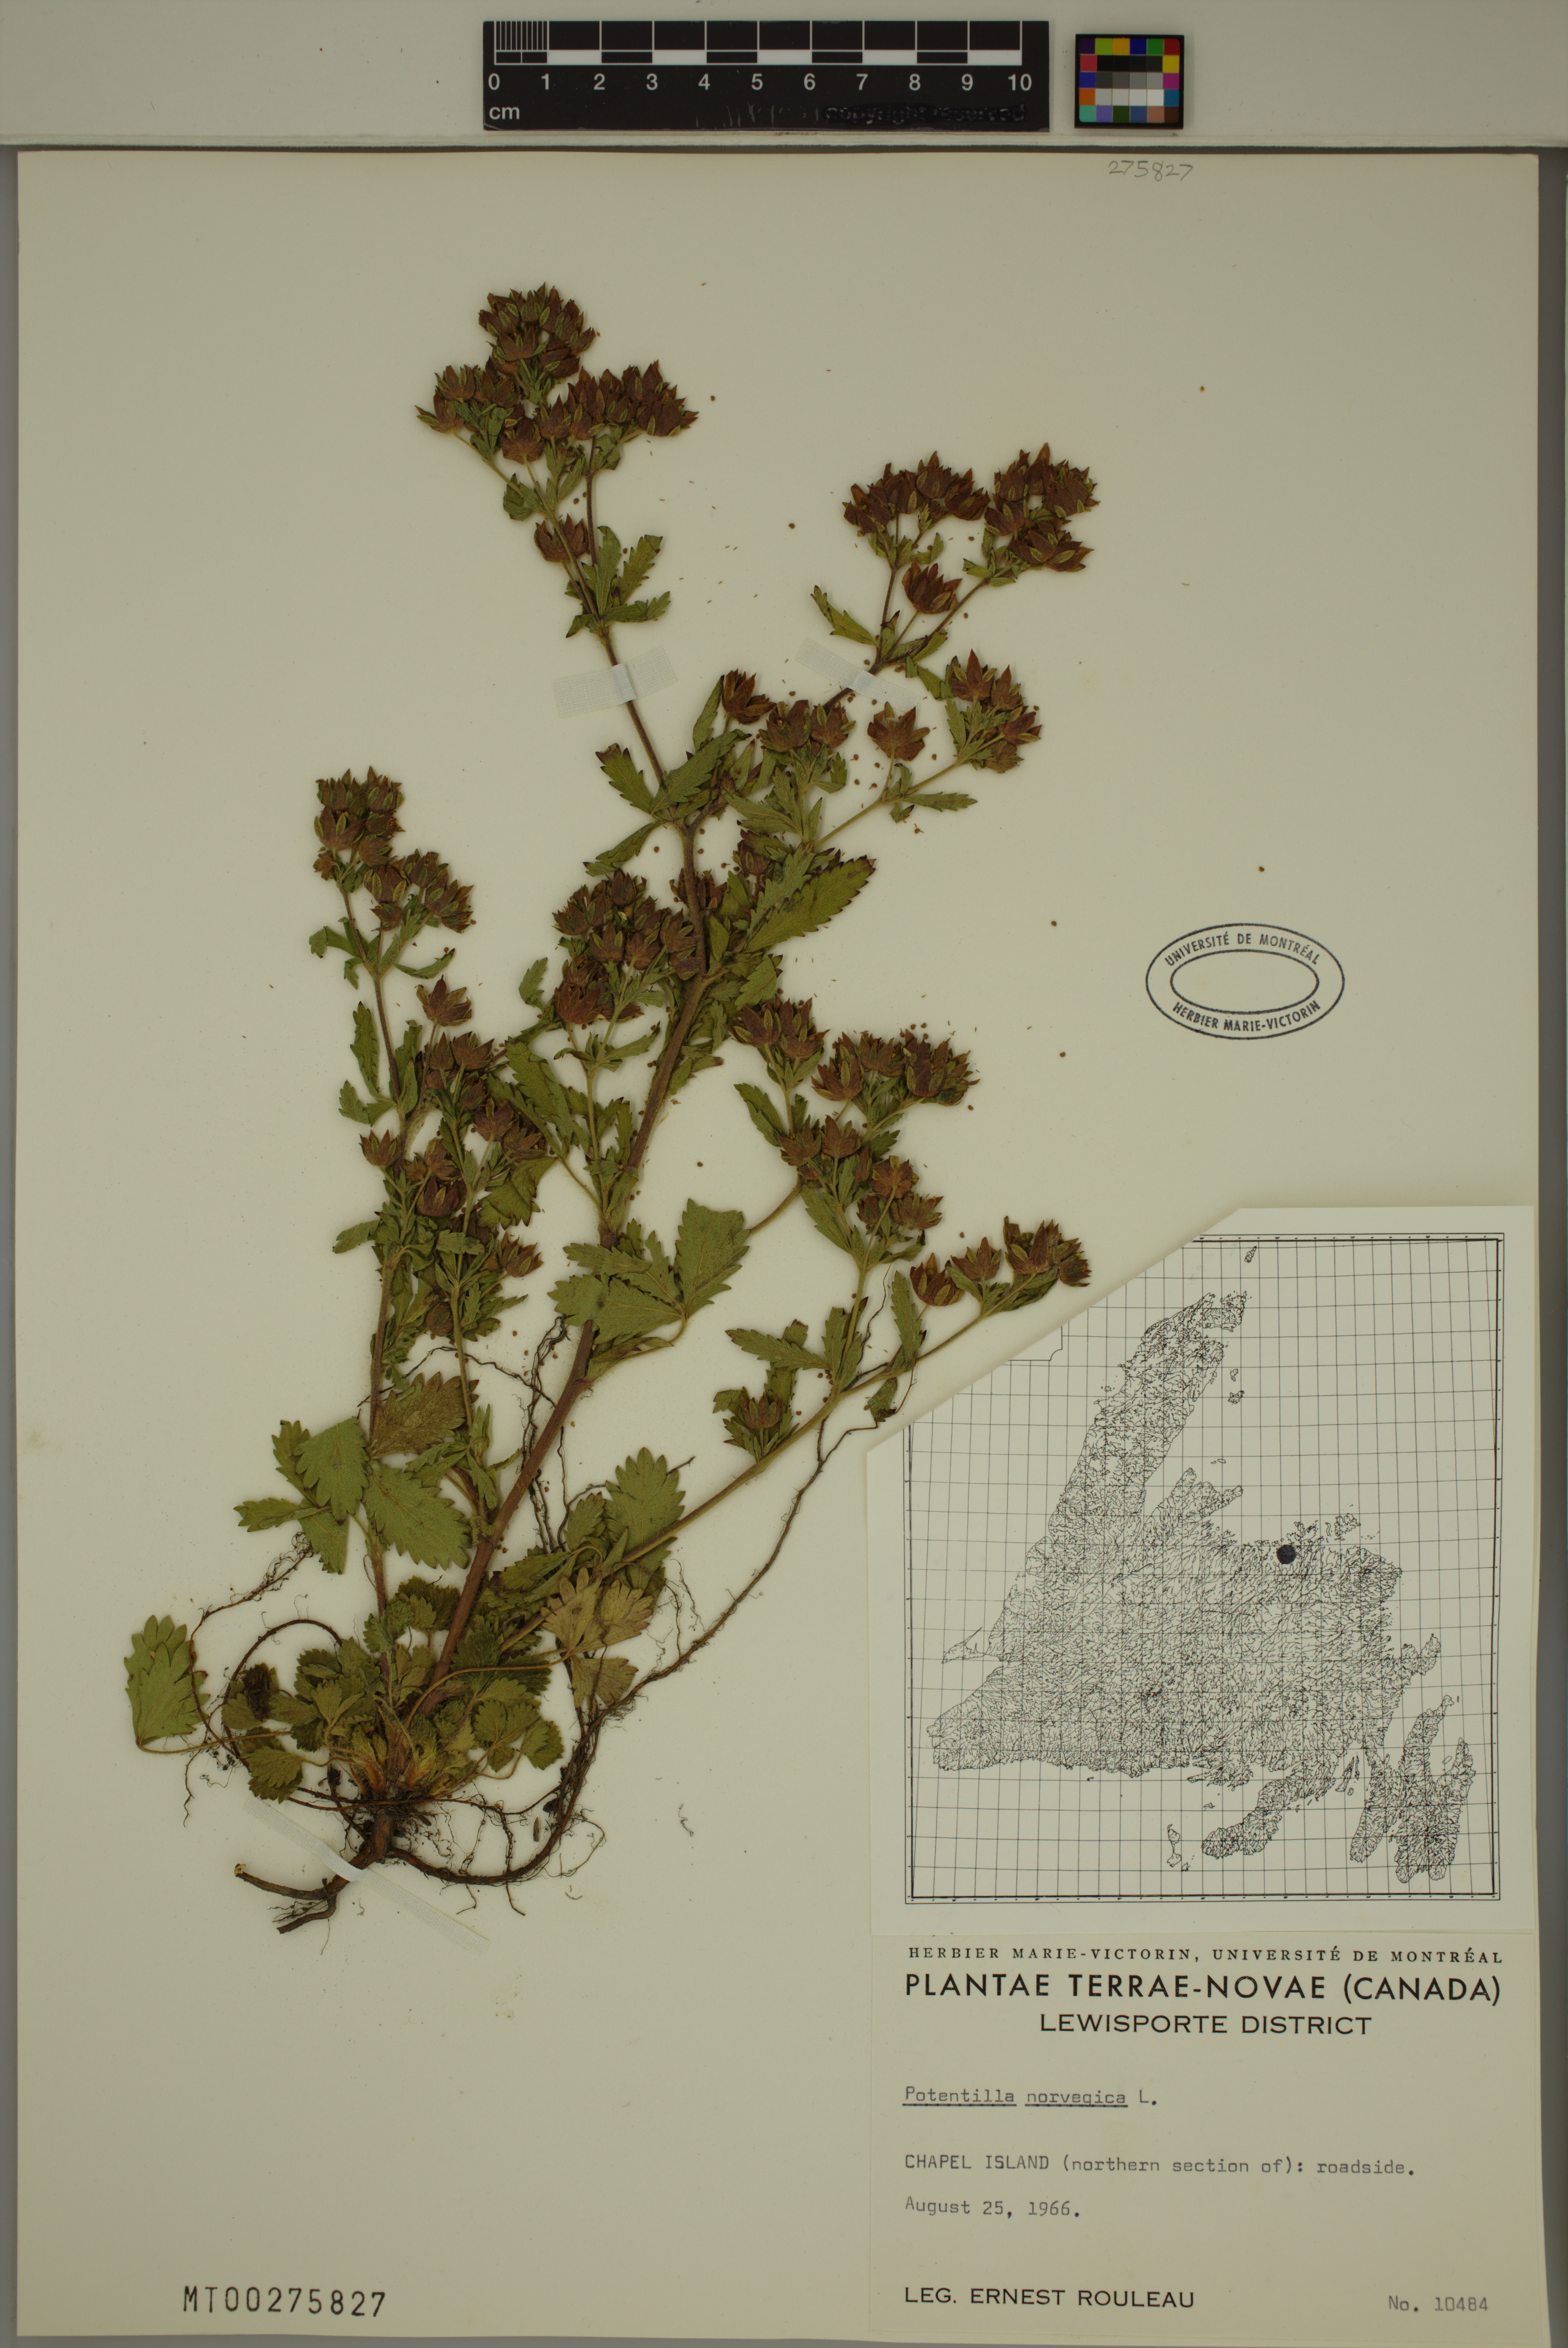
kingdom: Plantae
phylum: Tracheophyta
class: Magnoliopsida
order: Rosales
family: Rosaceae
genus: Potentilla
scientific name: Potentilla norvegica
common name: Ternate-leaved cinquefoil
